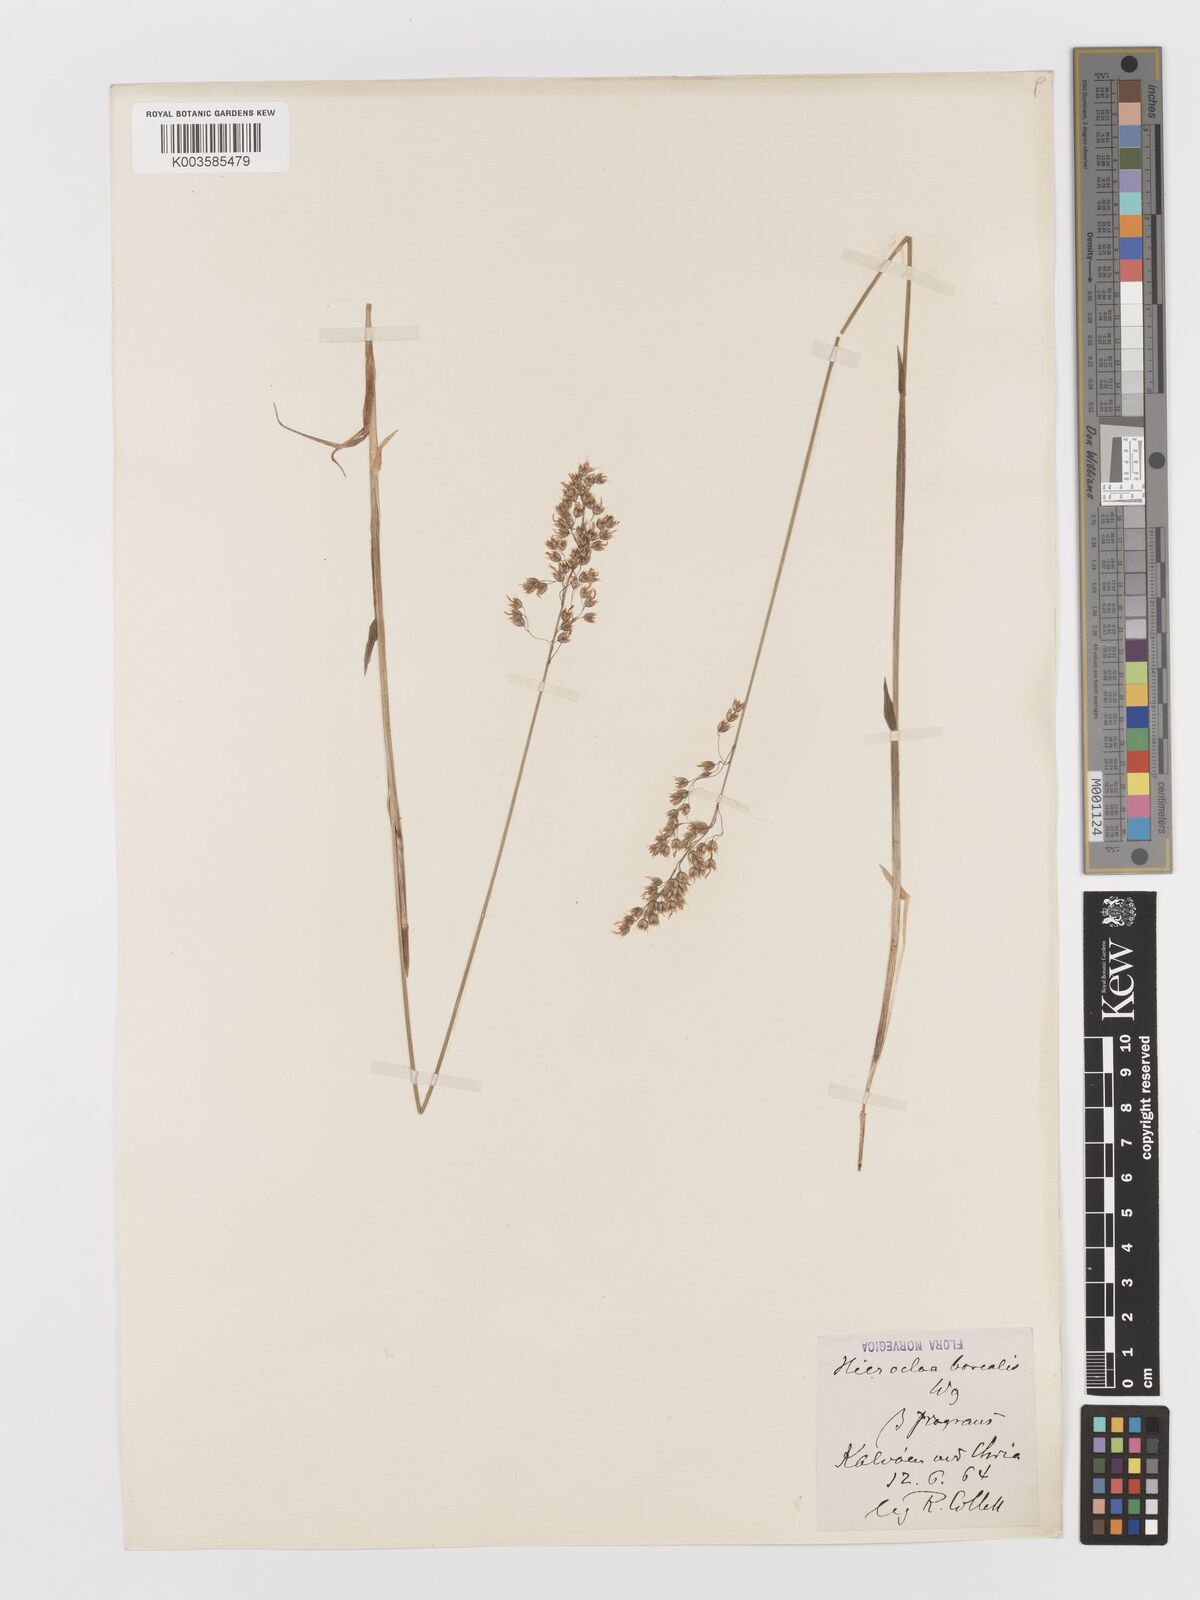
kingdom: Plantae
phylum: Tracheophyta
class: Liliopsida
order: Poales
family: Poaceae
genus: Anthoxanthum
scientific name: Anthoxanthum nitens
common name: Holy grass
